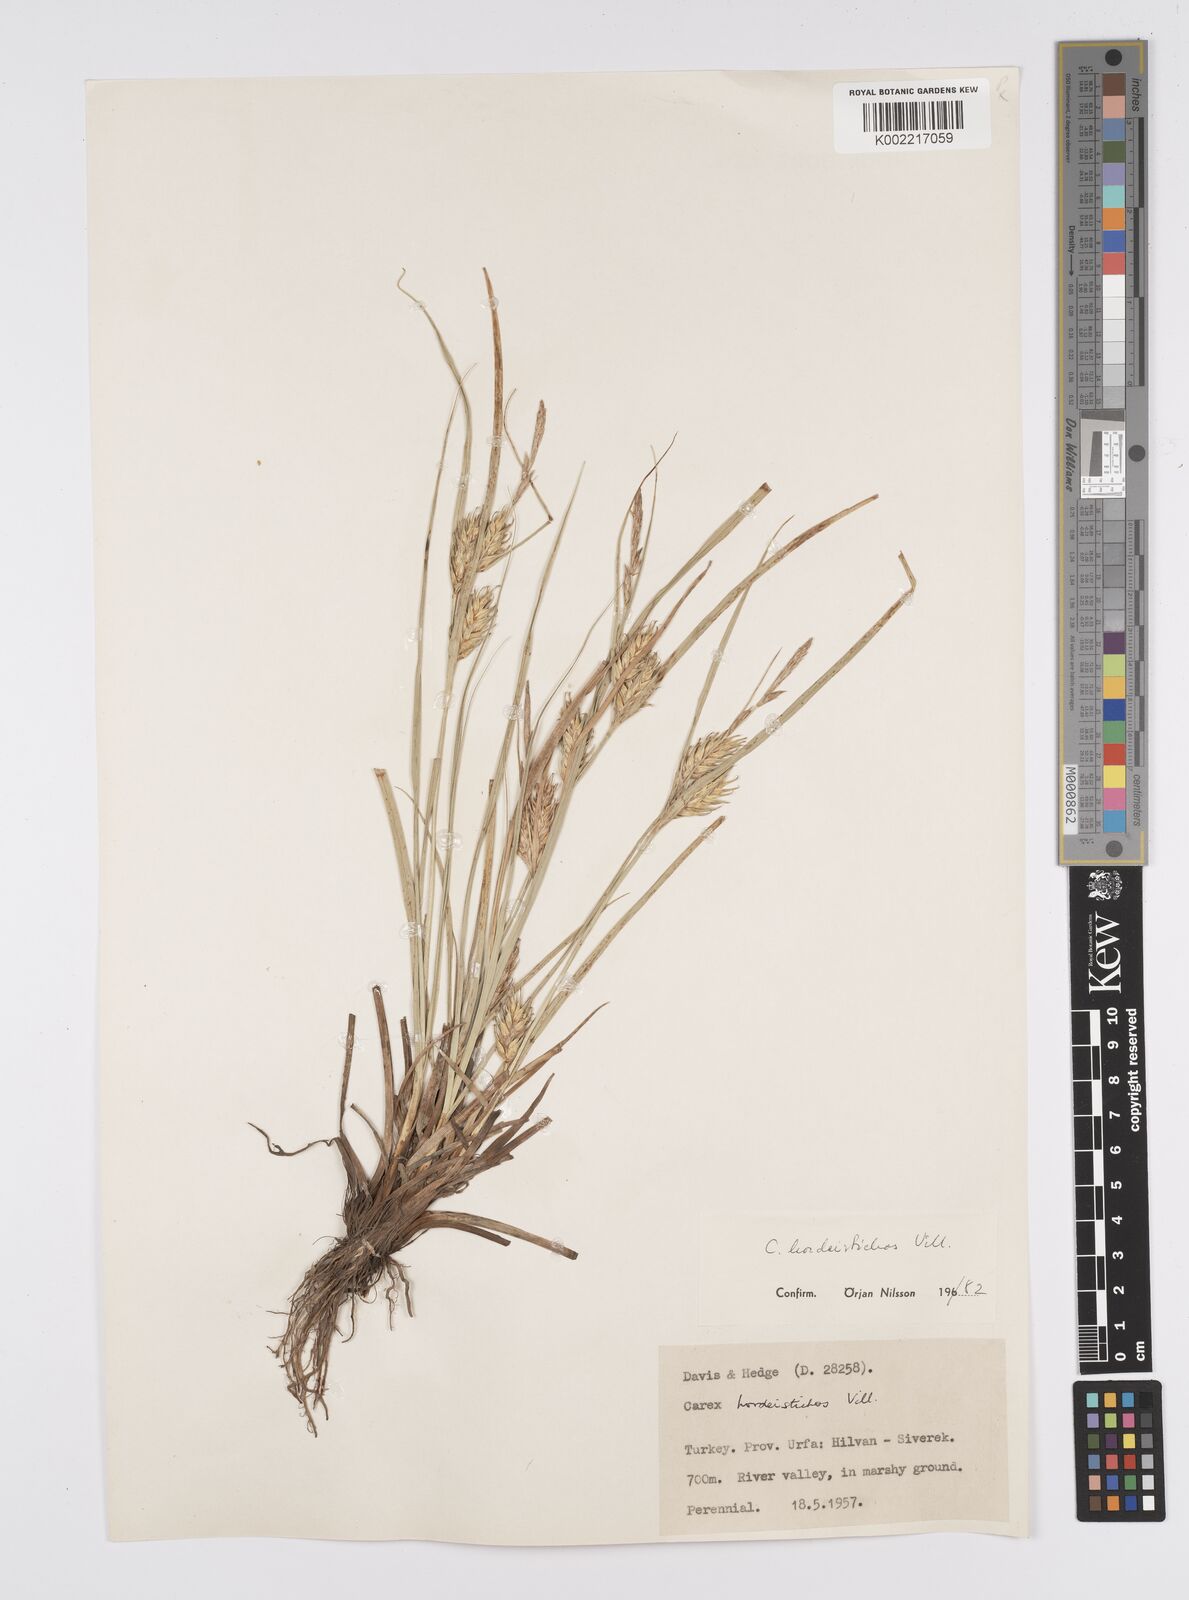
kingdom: Plantae
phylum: Tracheophyta
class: Liliopsida
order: Poales
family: Cyperaceae
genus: Carex
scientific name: Carex hordeistichos
